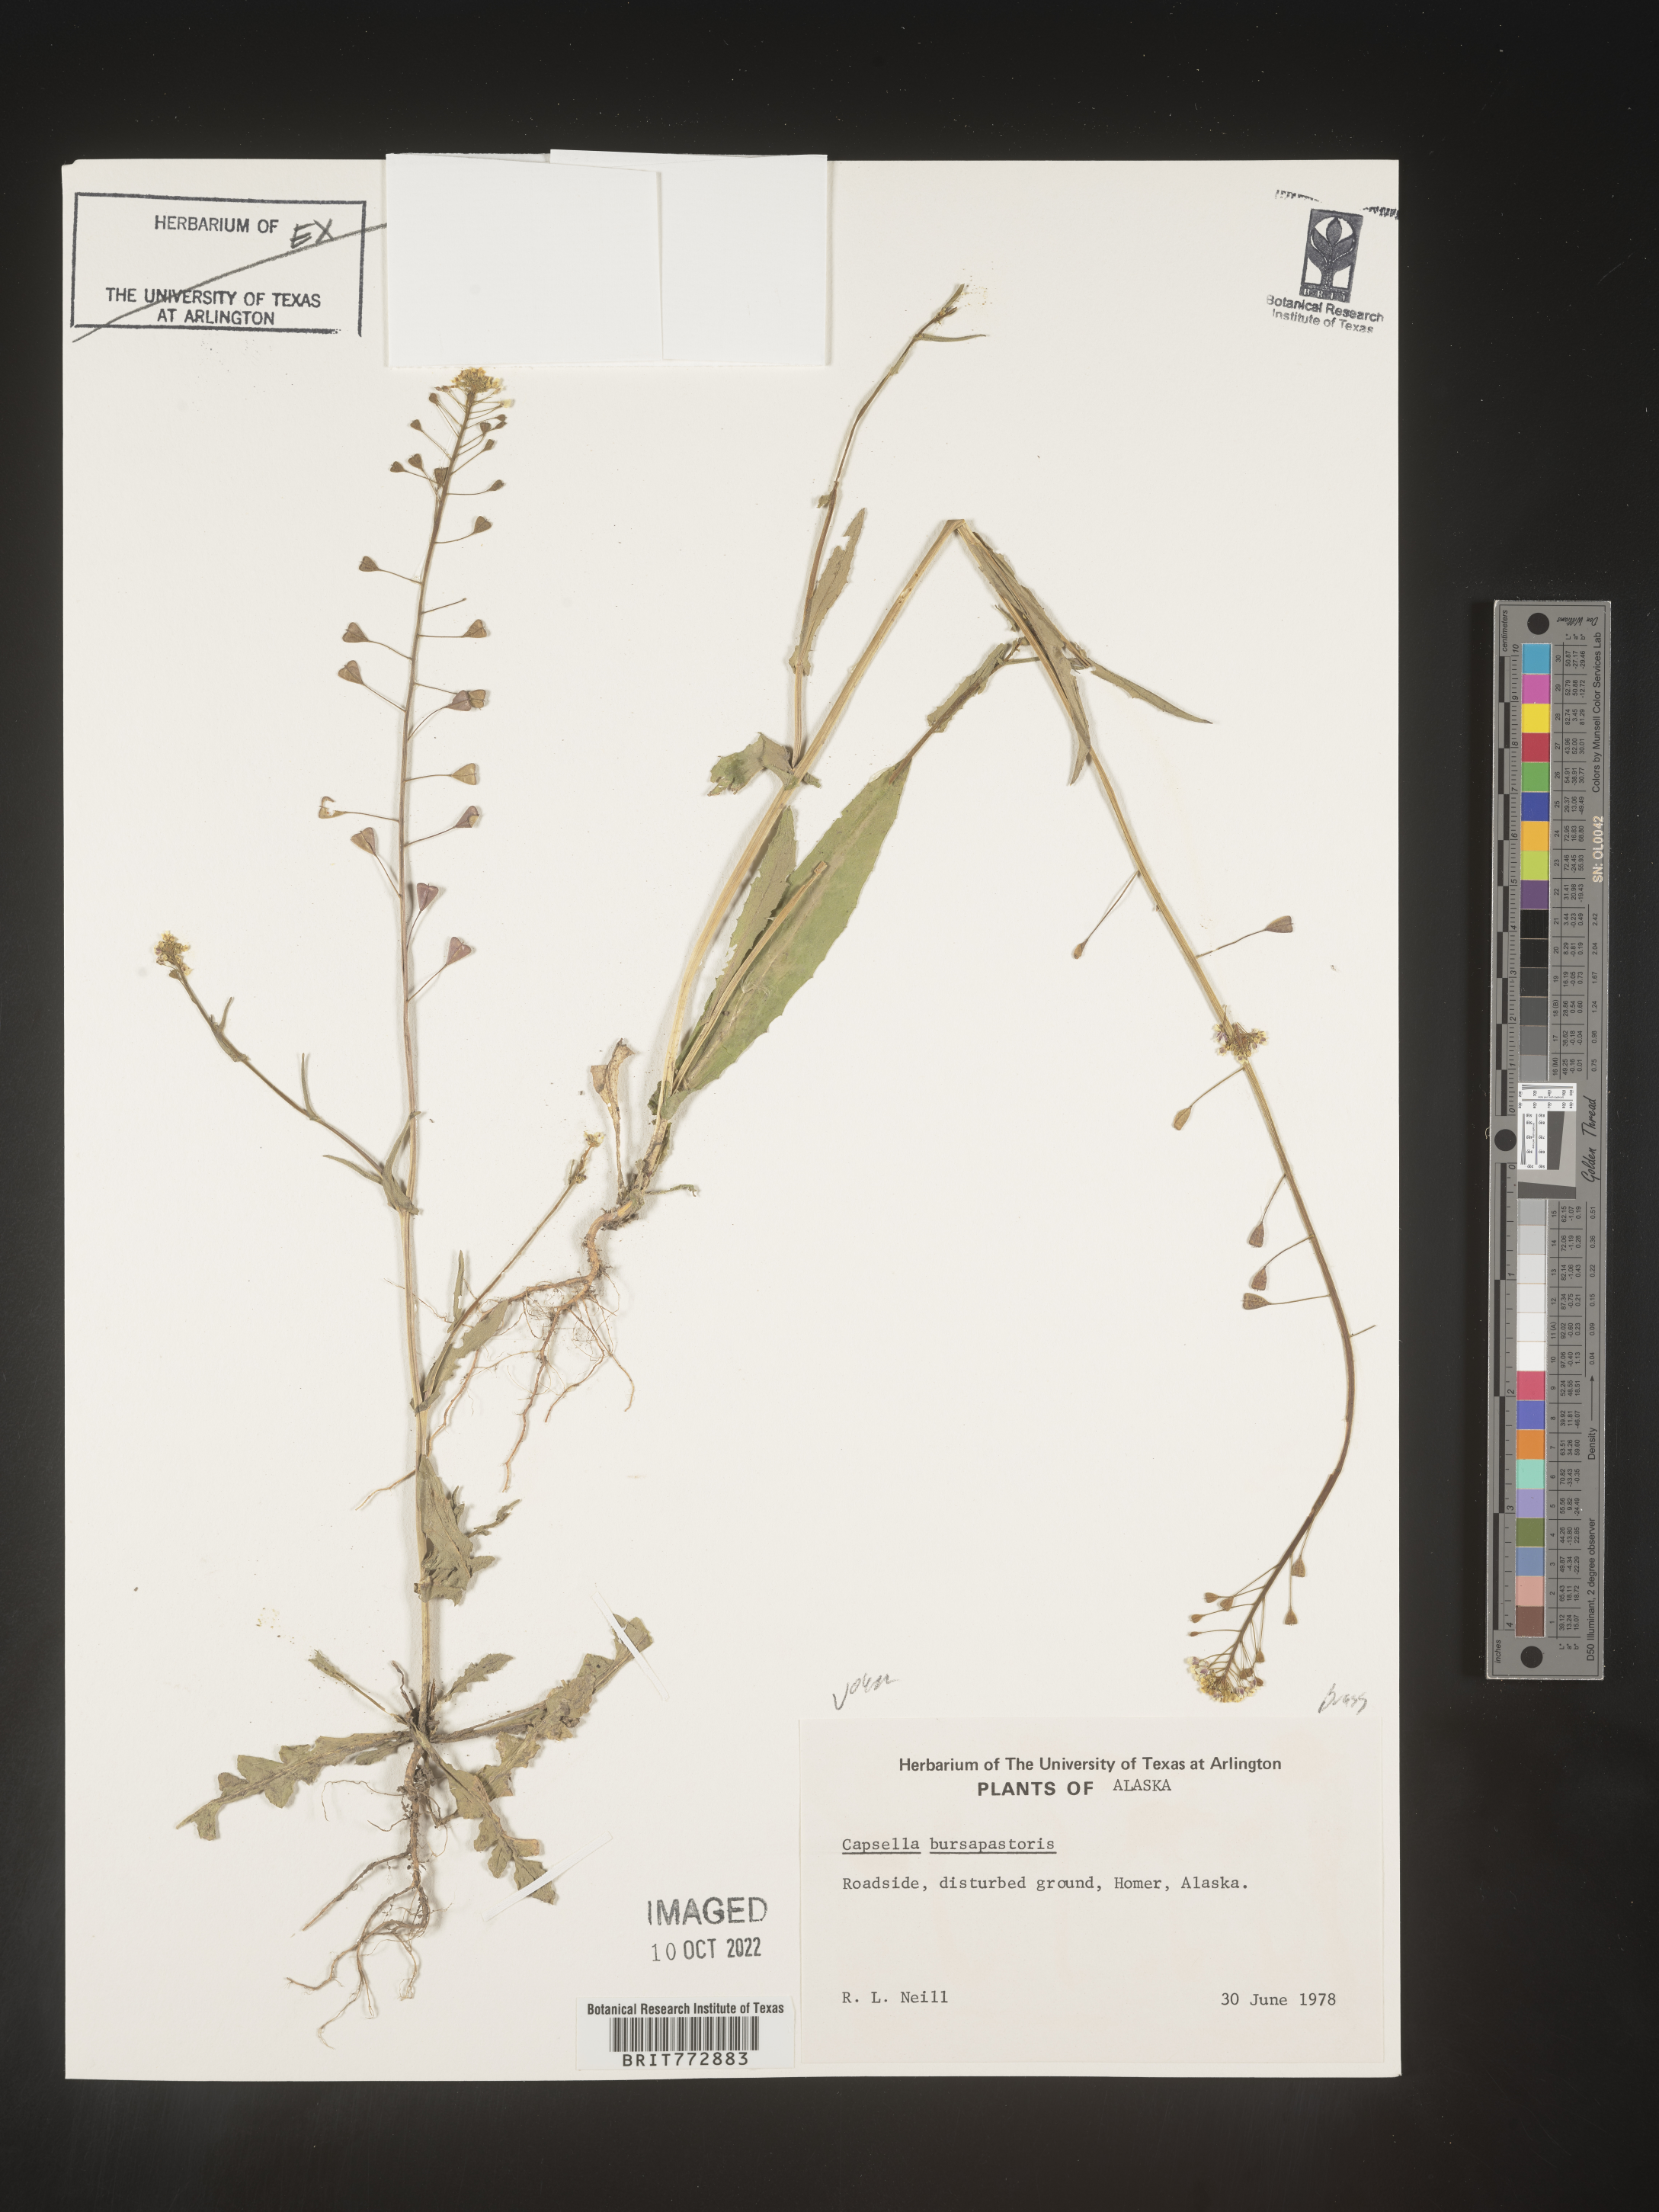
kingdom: Plantae
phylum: Tracheophyta
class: Magnoliopsida
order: Brassicales
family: Brassicaceae
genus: Capsella
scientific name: Capsella bursa-pastoris
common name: Shepherd's purse
